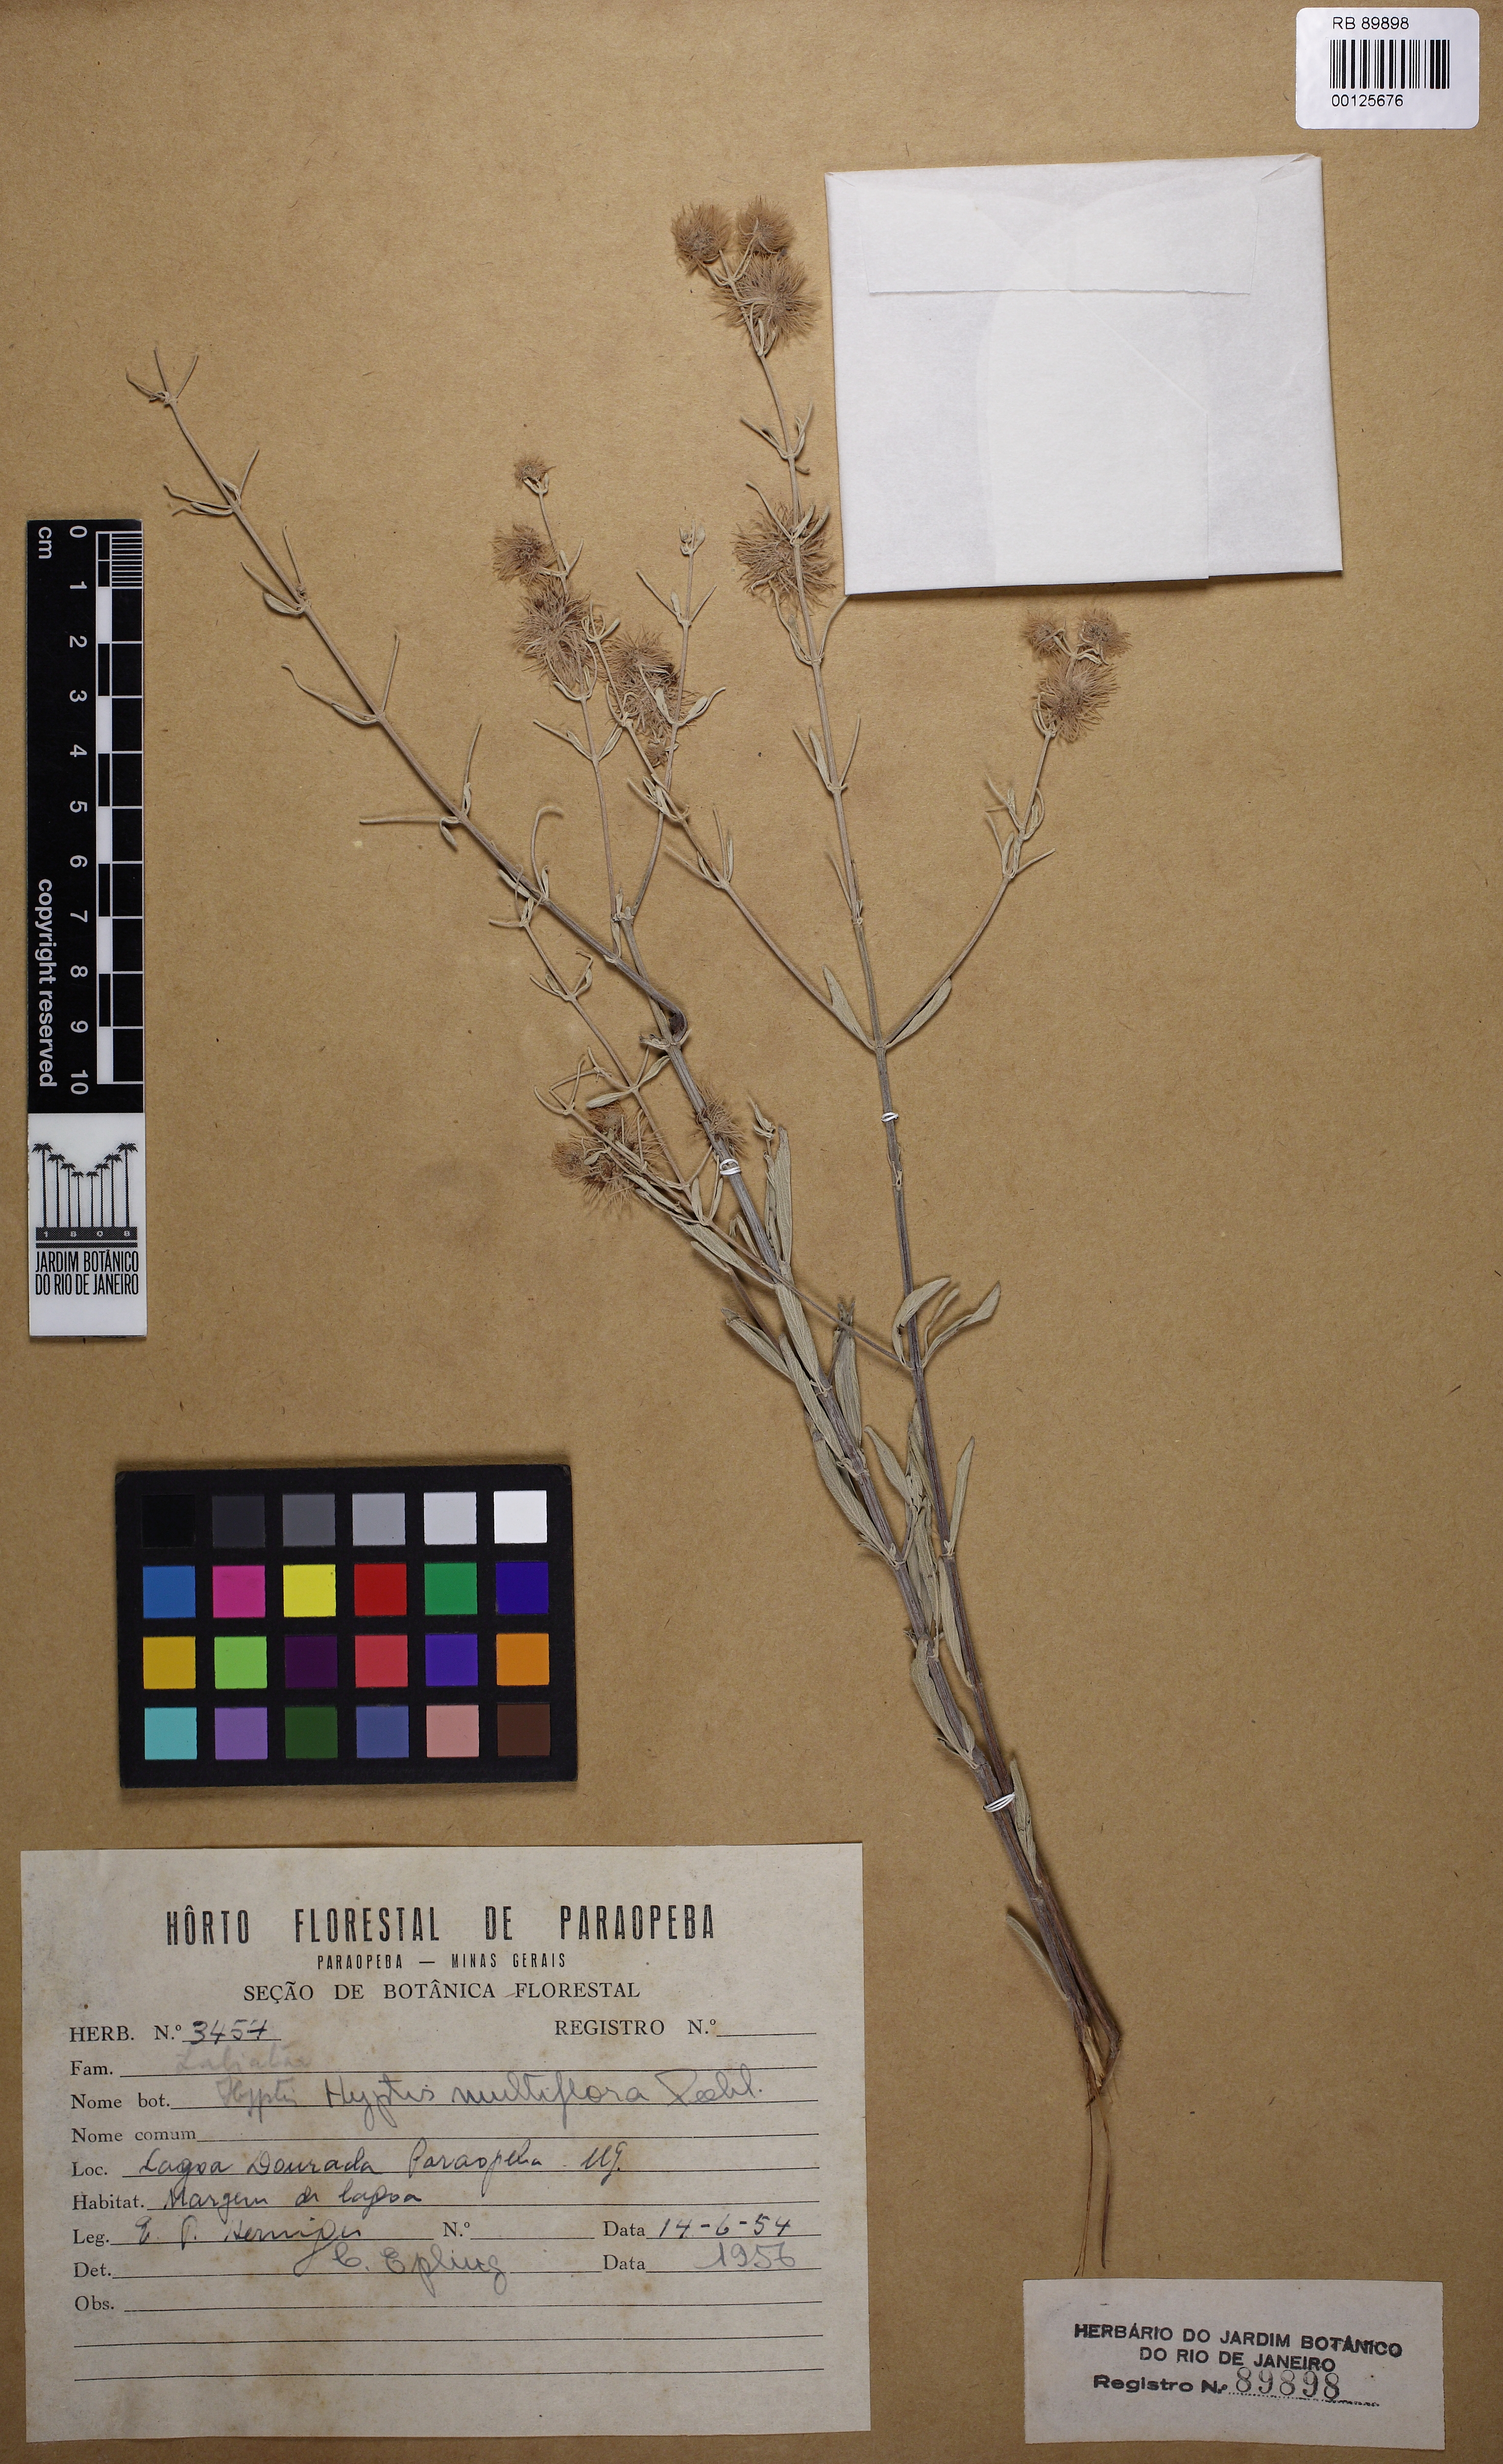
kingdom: Plantae
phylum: Tracheophyta
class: Magnoliopsida
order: Lamiales
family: Lamiaceae
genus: Medusantha
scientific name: Medusantha multiflora
